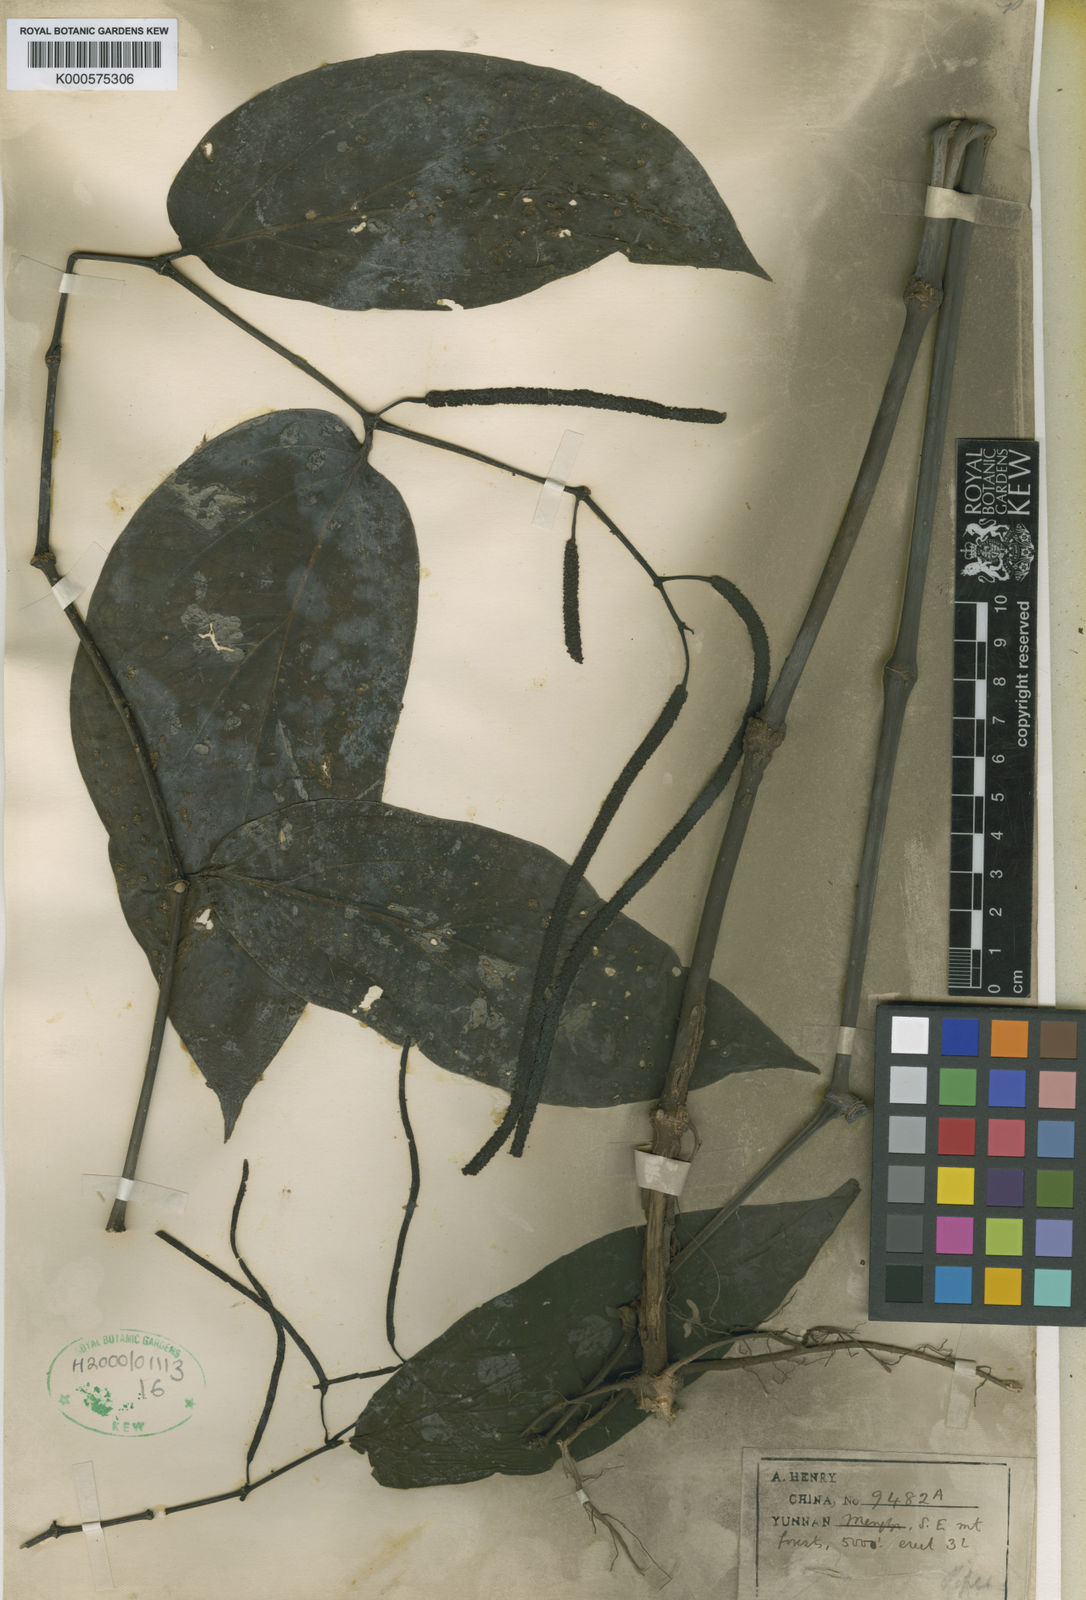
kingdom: Plantae
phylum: Tracheophyta
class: Magnoliopsida
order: Piperales
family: Piperaceae
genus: Piper
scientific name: Piper boehmeriifolium
